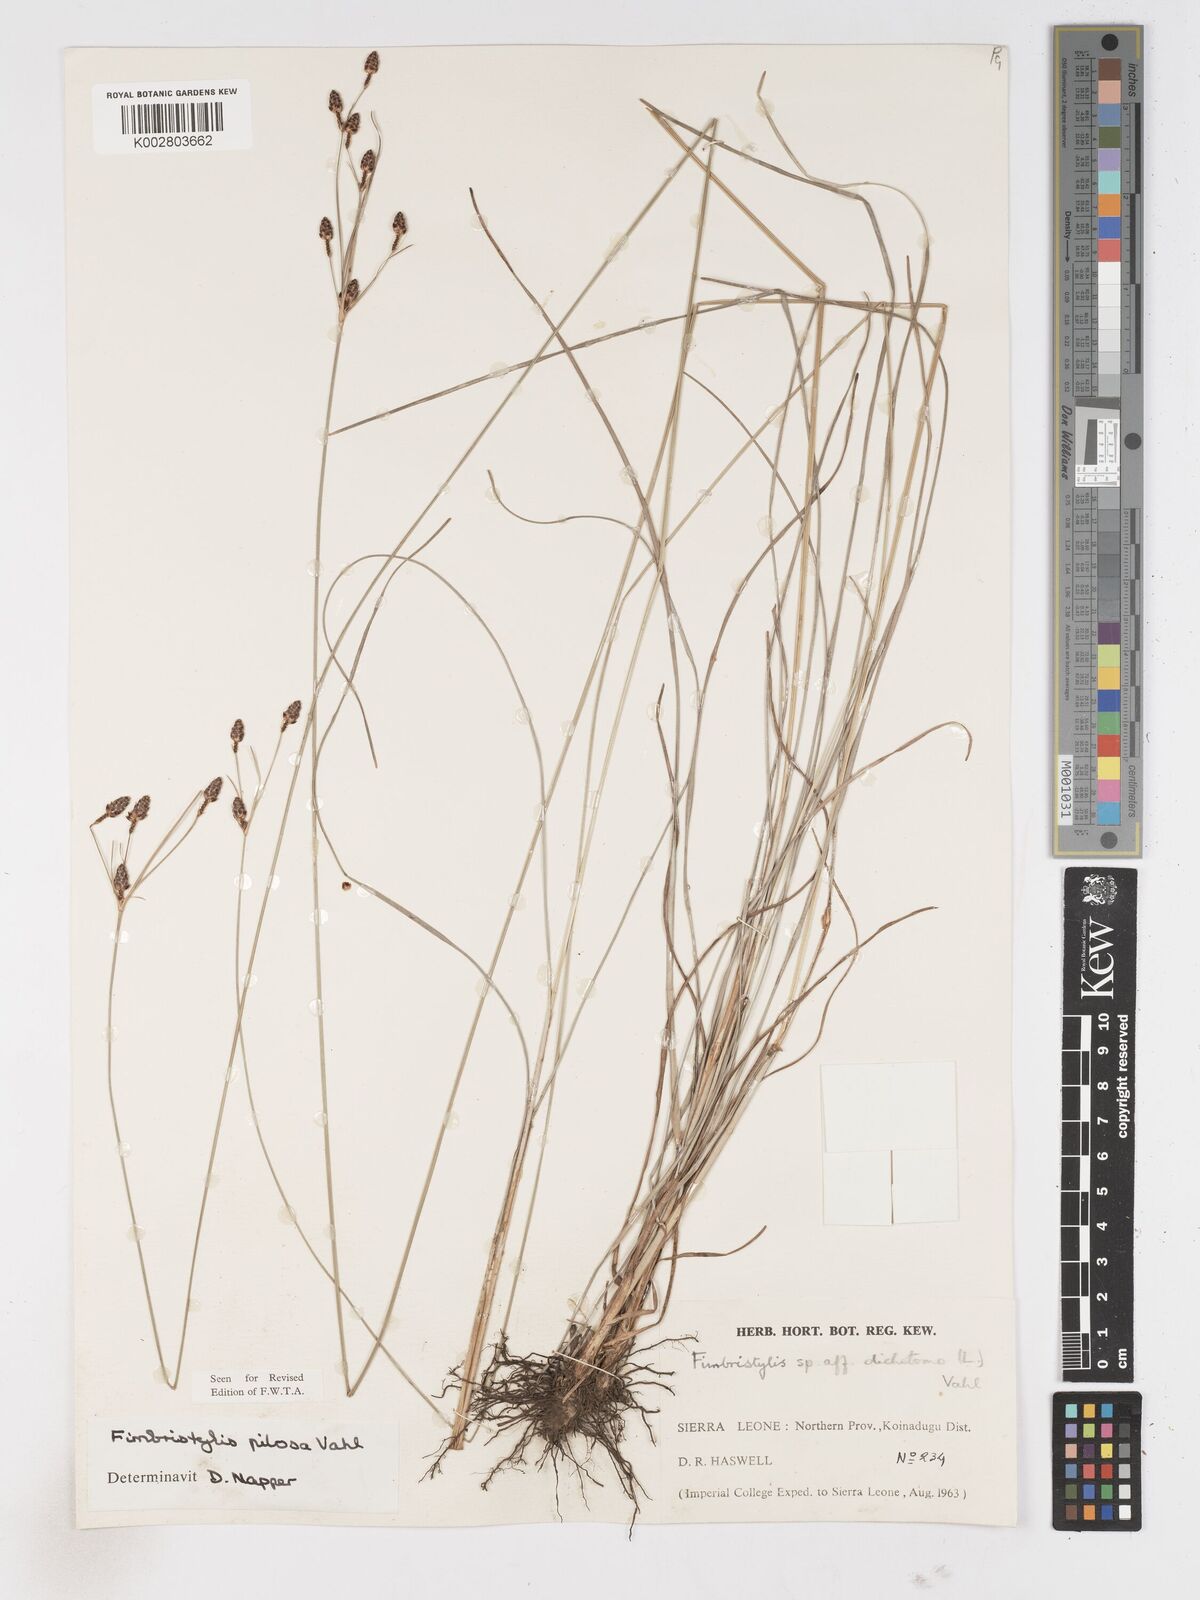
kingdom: Plantae
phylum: Tracheophyta
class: Liliopsida
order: Poales
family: Cyperaceae
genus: Fimbristylis
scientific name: Fimbristylis pilosa
